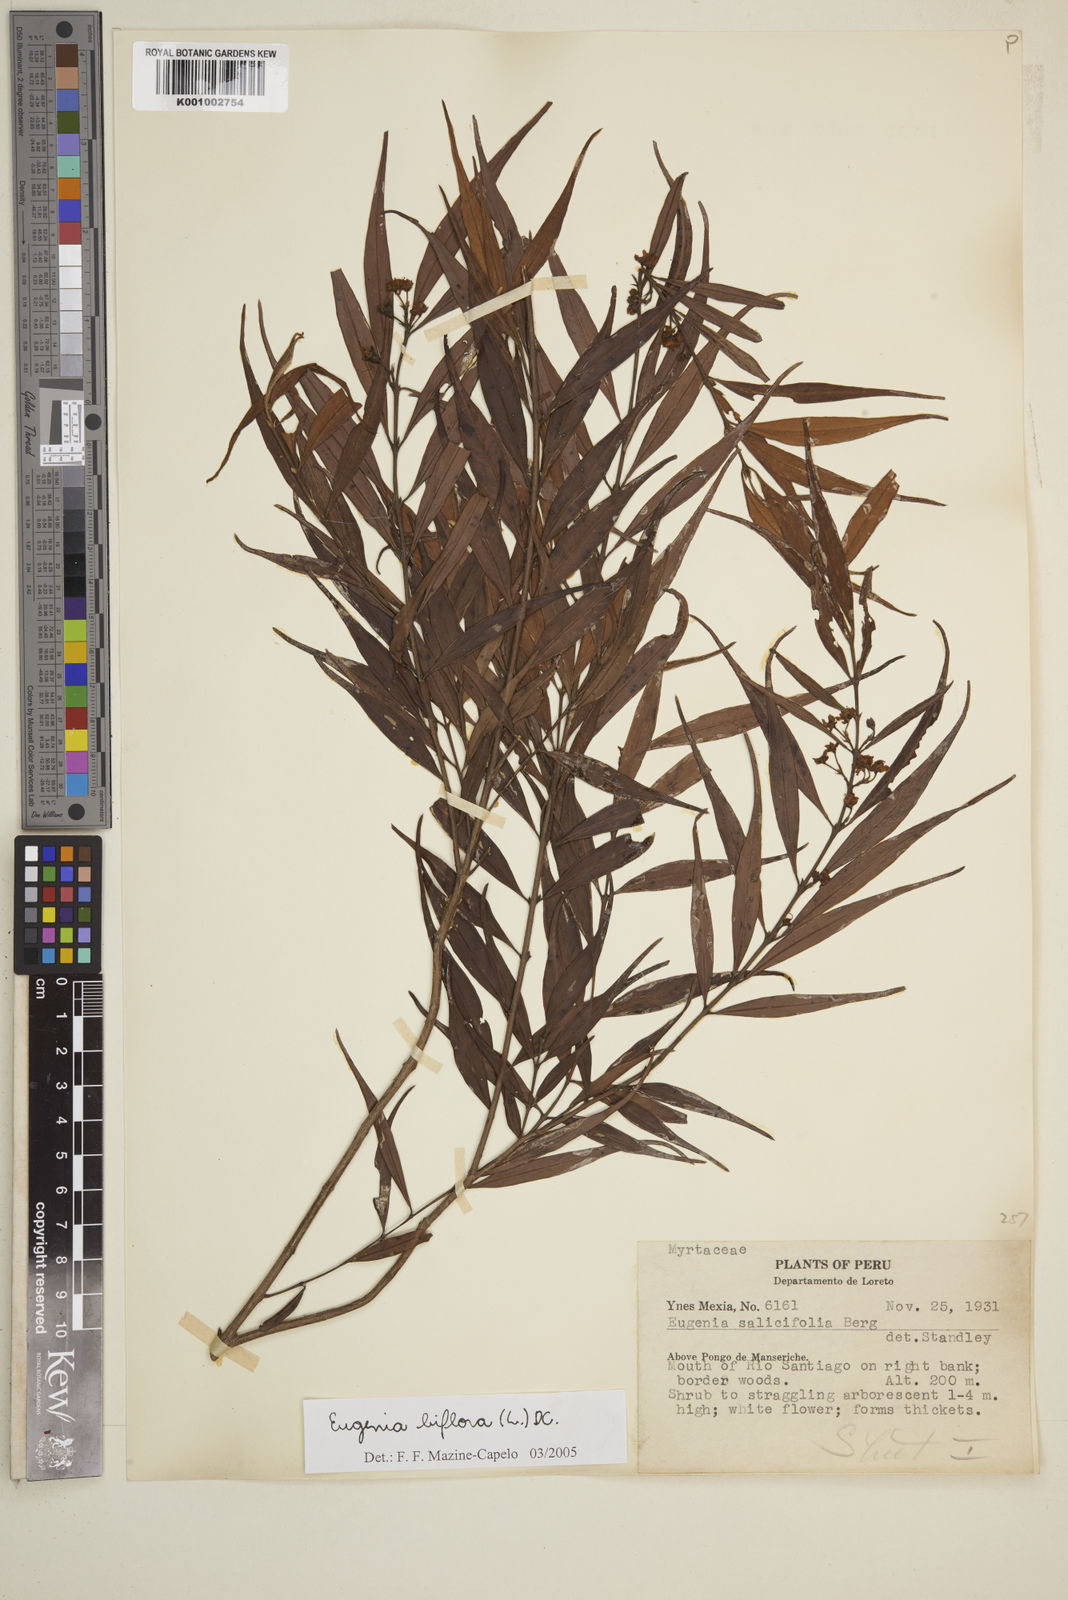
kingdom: Plantae
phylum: Tracheophyta
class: Magnoliopsida
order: Myrtales
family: Myrtaceae
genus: Eugenia
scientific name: Eugenia biflora
